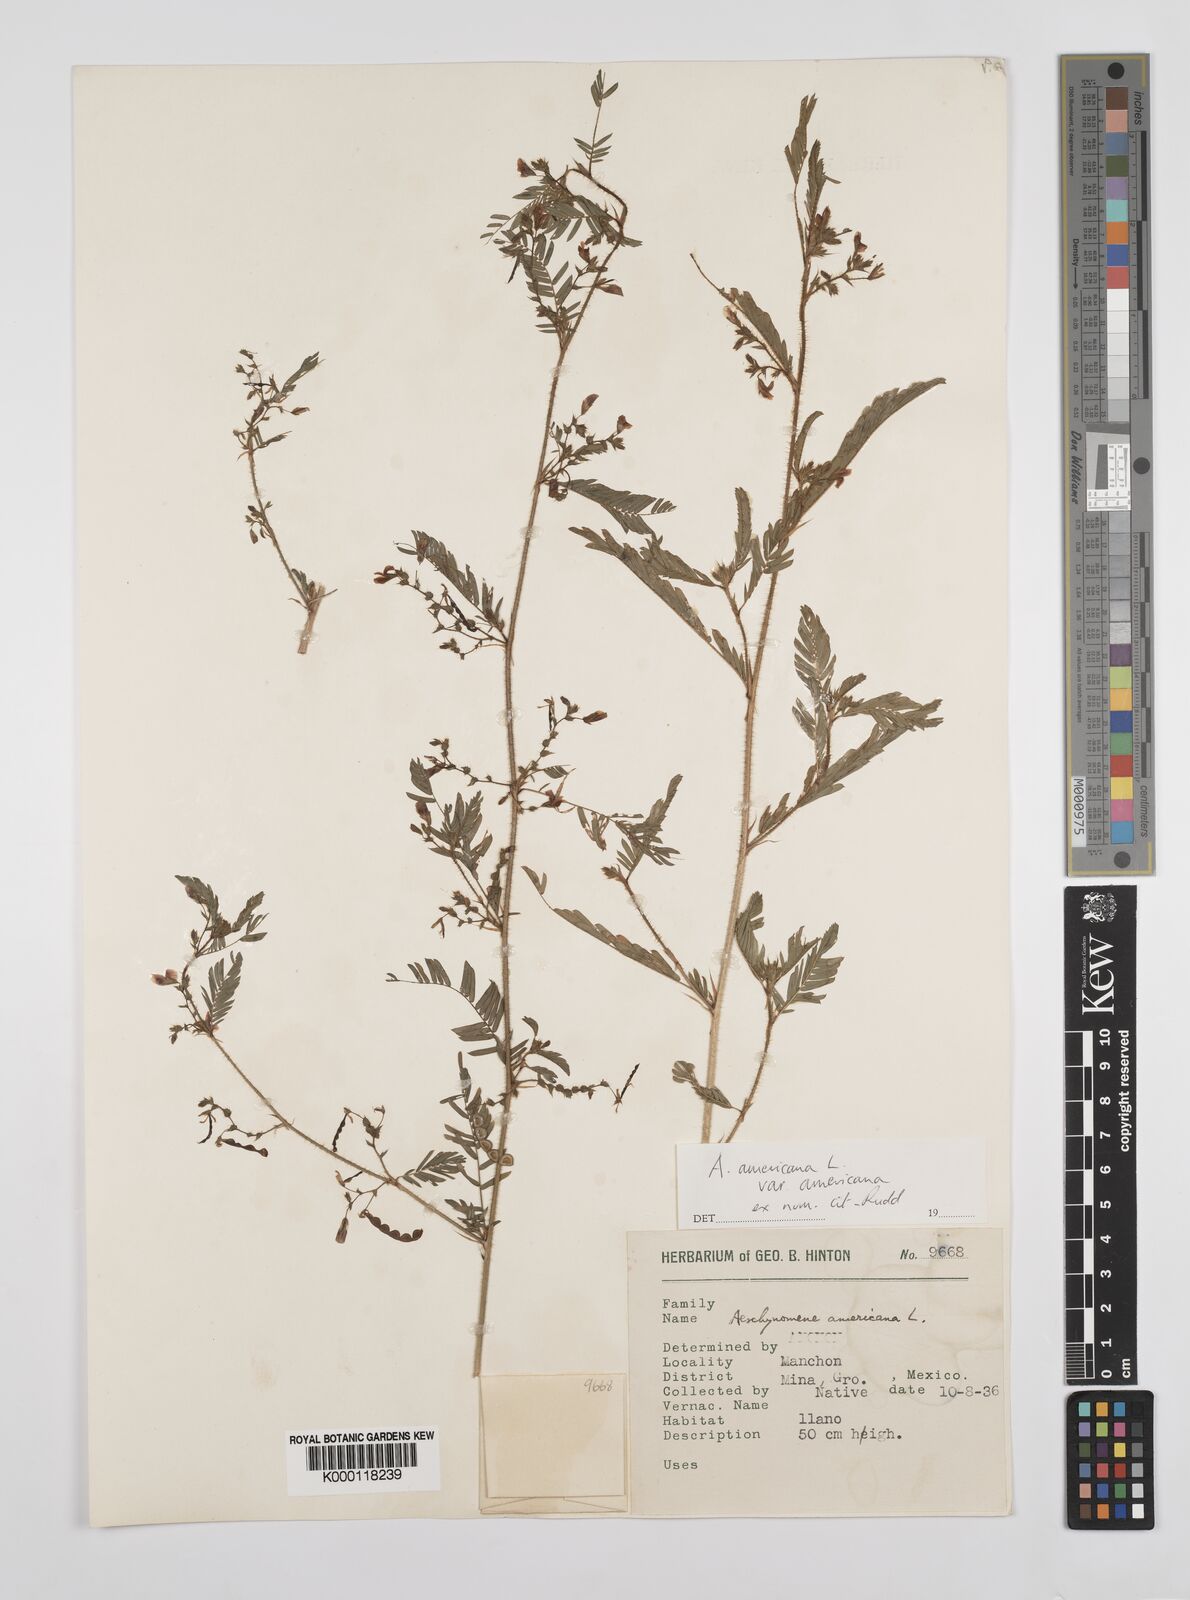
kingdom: Plantae
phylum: Tracheophyta
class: Magnoliopsida
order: Fabales
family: Fabaceae
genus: Aeschynomene
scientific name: Aeschynomene americana
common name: Joint-vetch
